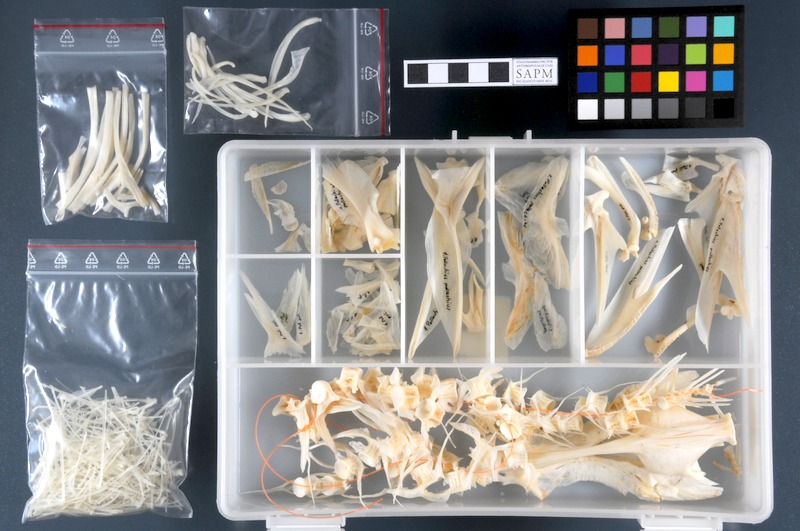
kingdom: Animalia
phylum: Chordata
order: Gadiformes
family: Gadidae
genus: Pollachius
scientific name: Pollachius pollachius
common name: Pollack
